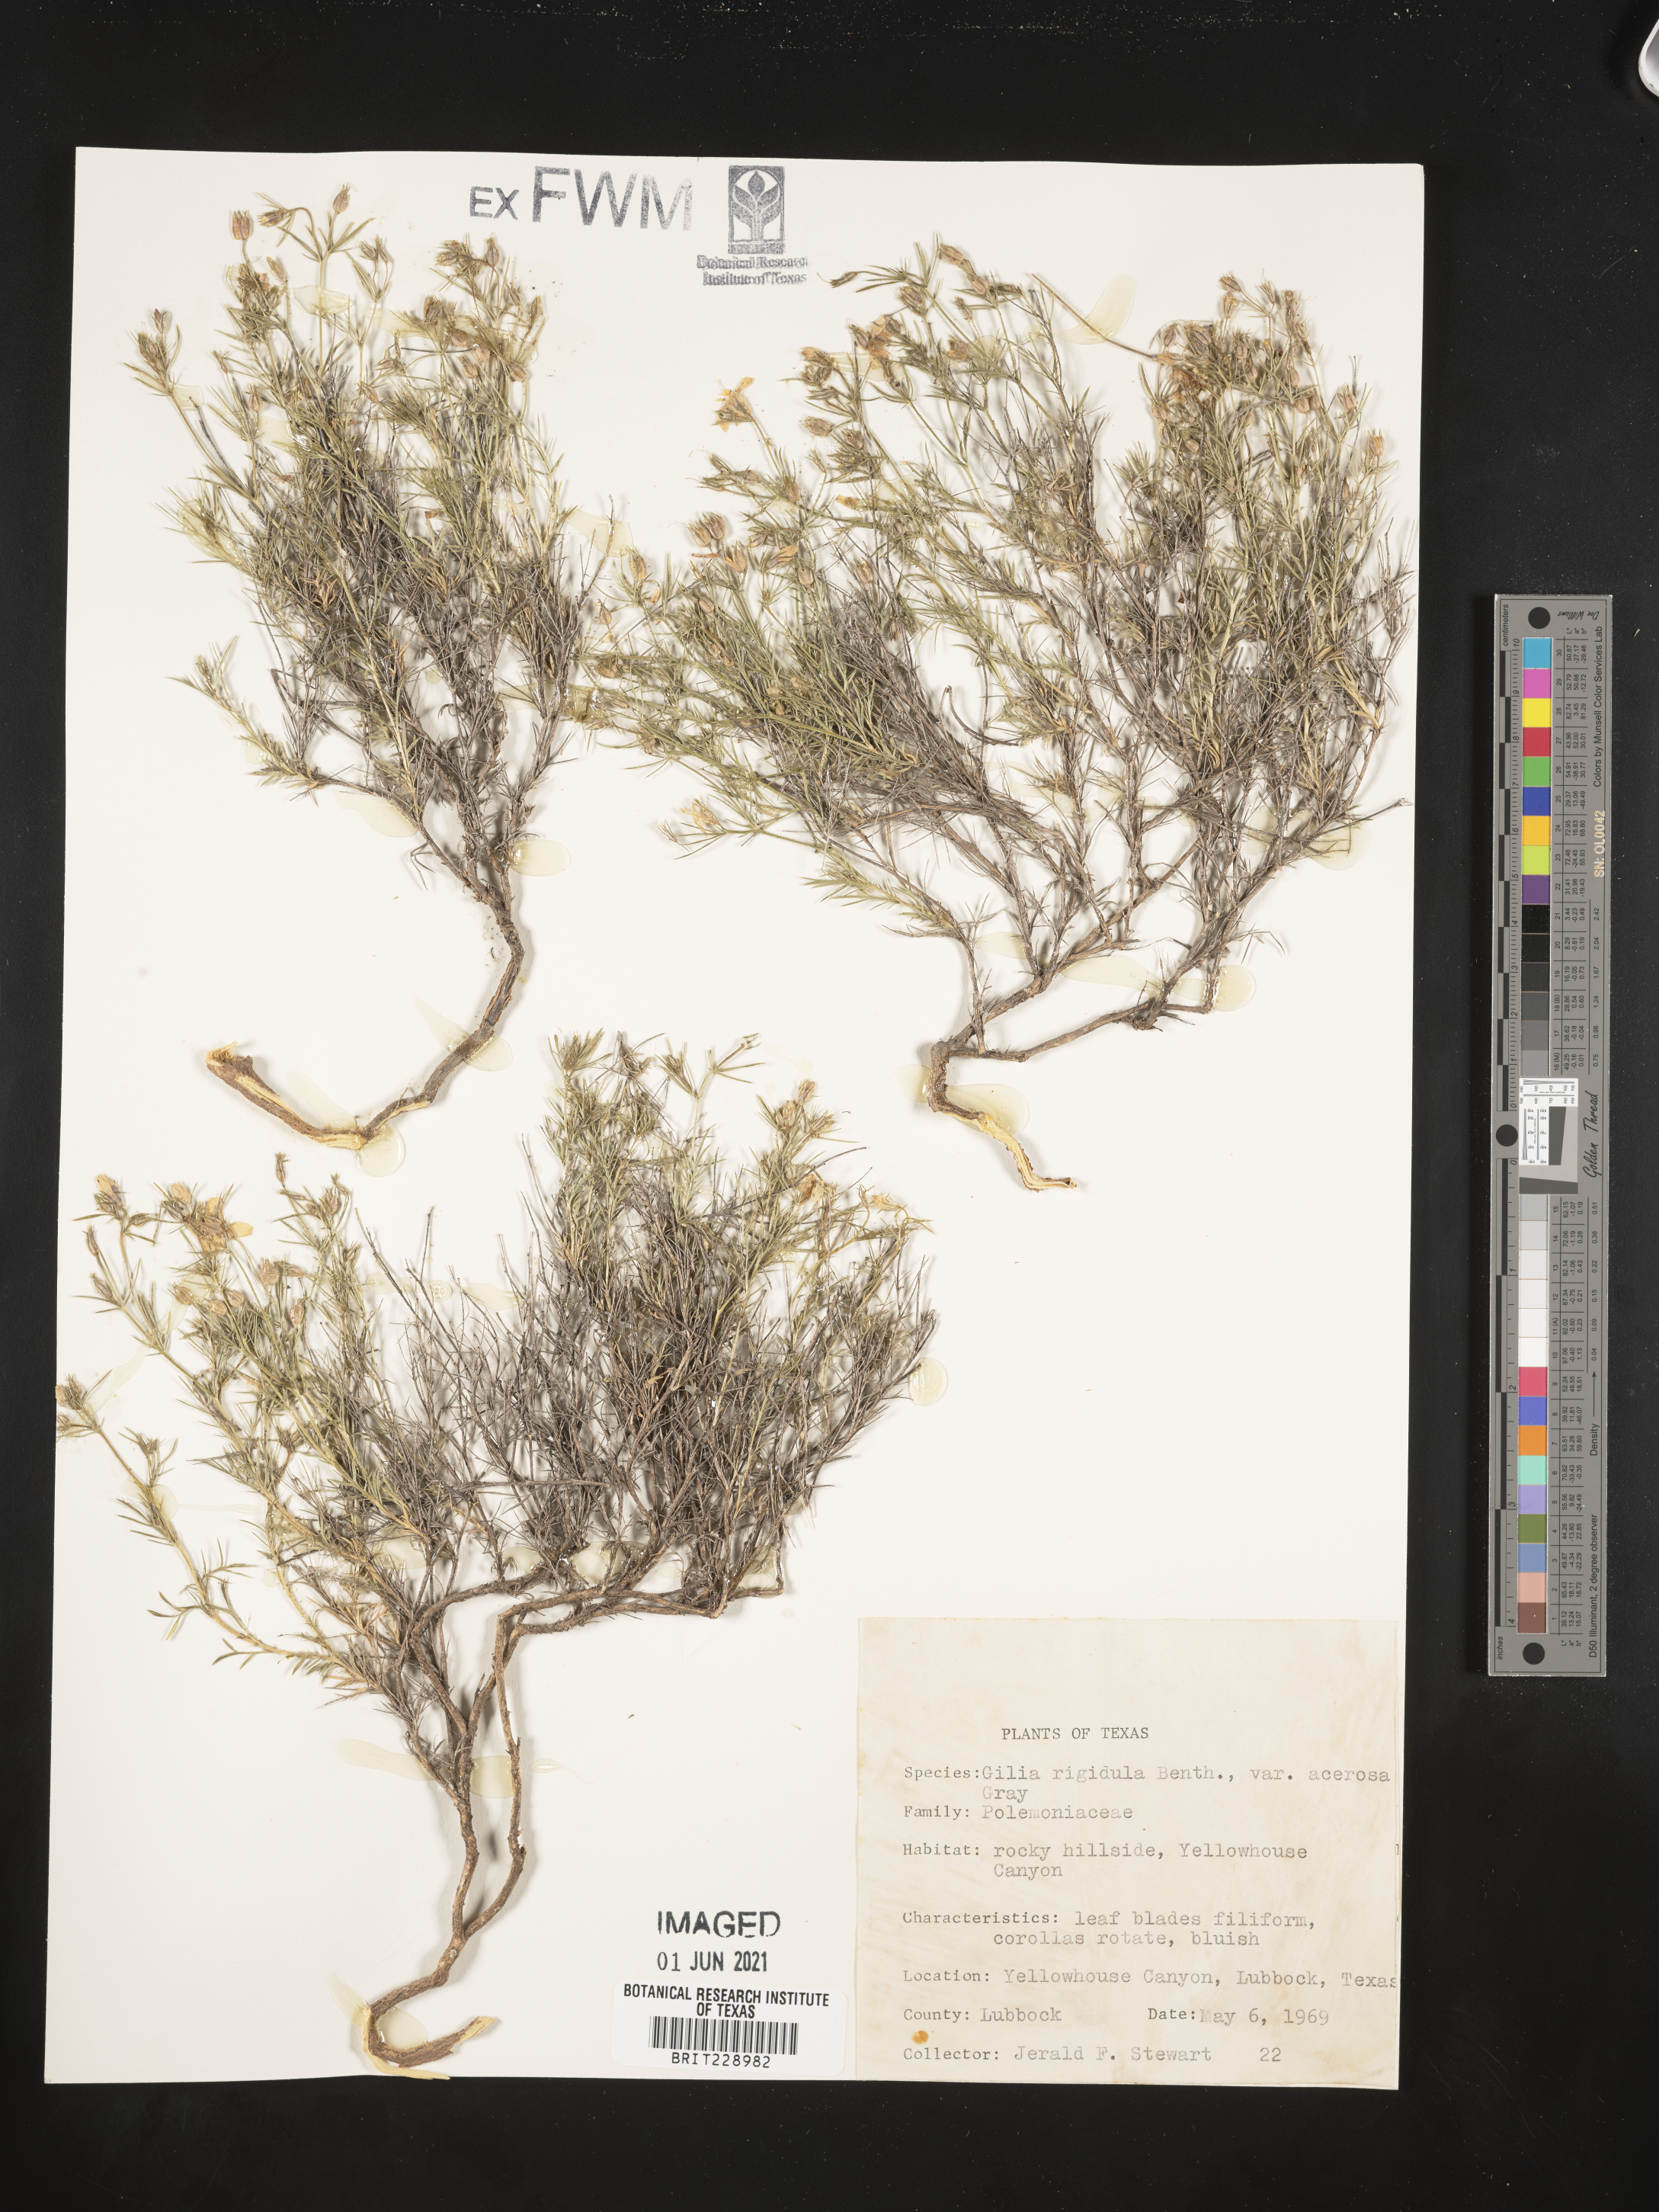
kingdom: Plantae
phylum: Tracheophyta
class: Magnoliopsida
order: Ericales
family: Polemoniaceae
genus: Giliastrum
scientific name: Giliastrum acerosum
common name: Bluebowls
